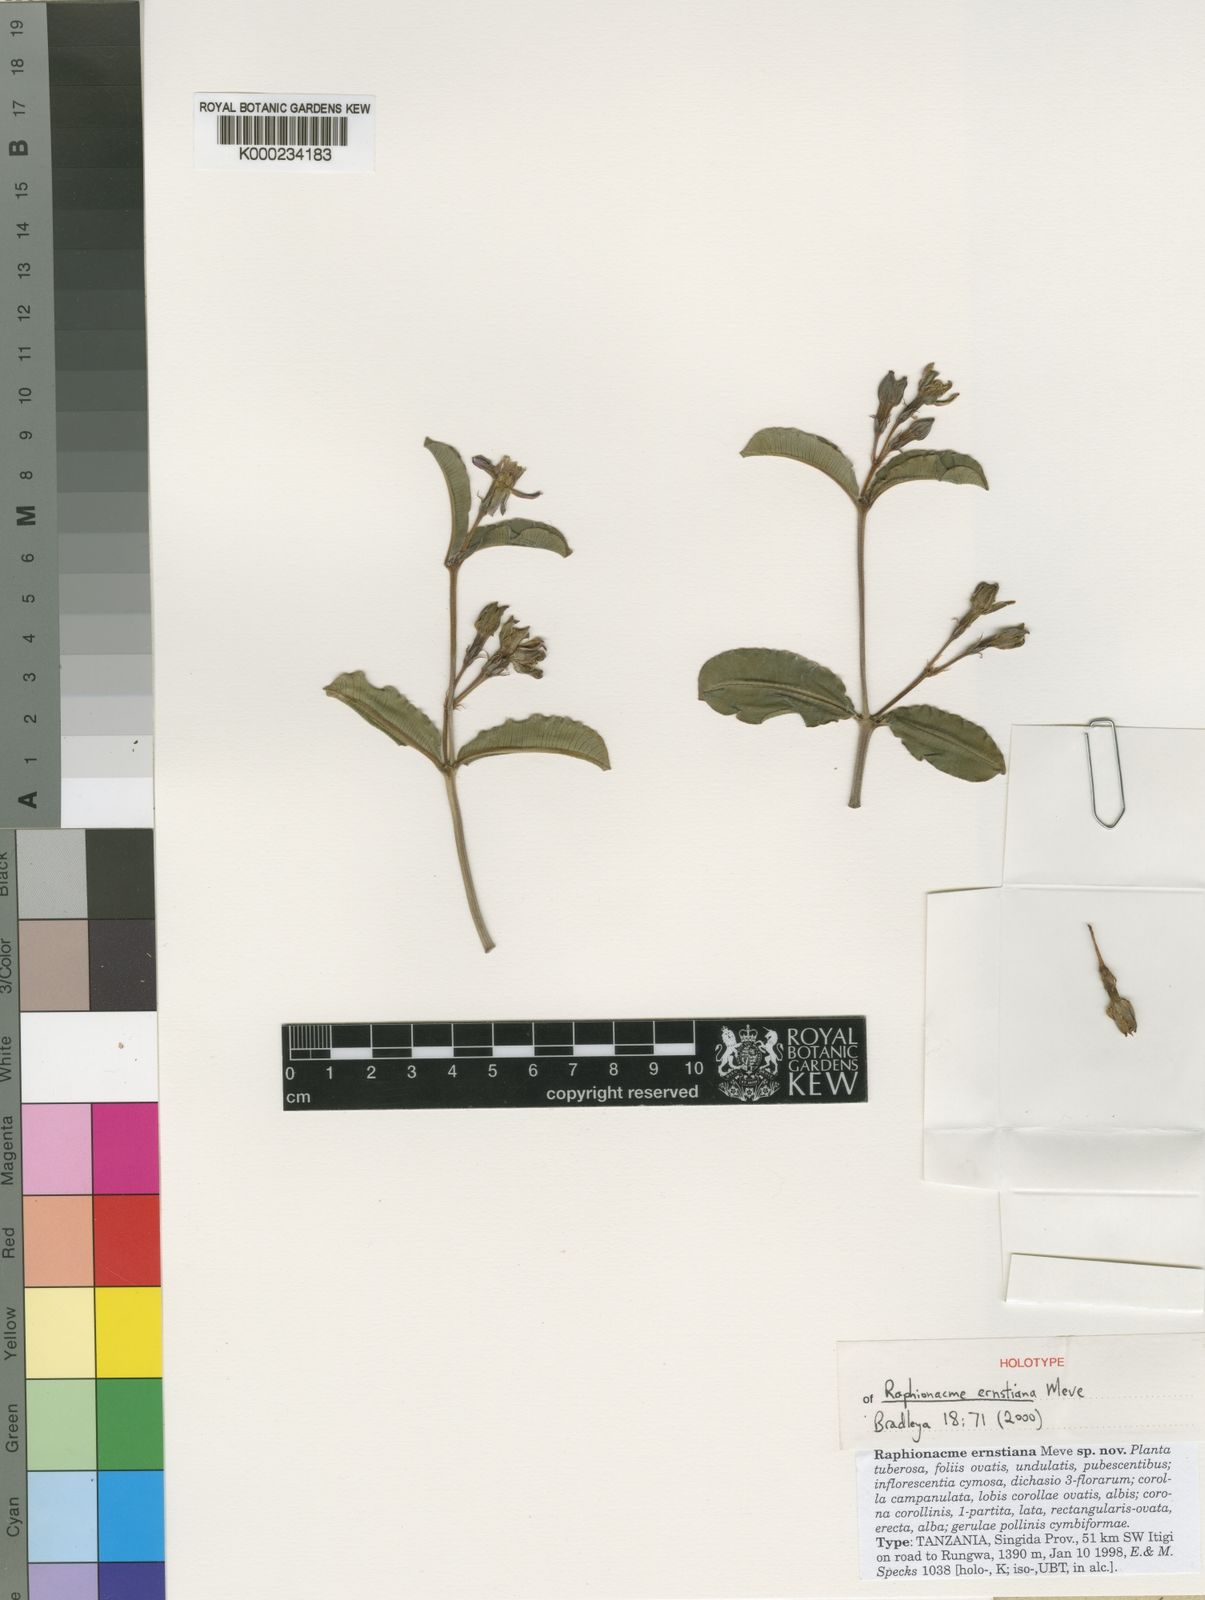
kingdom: Plantae
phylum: Tracheophyta
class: Magnoliopsida
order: Gentianales
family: Apocynaceae
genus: Raphionacme
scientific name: Raphionacme longituba
